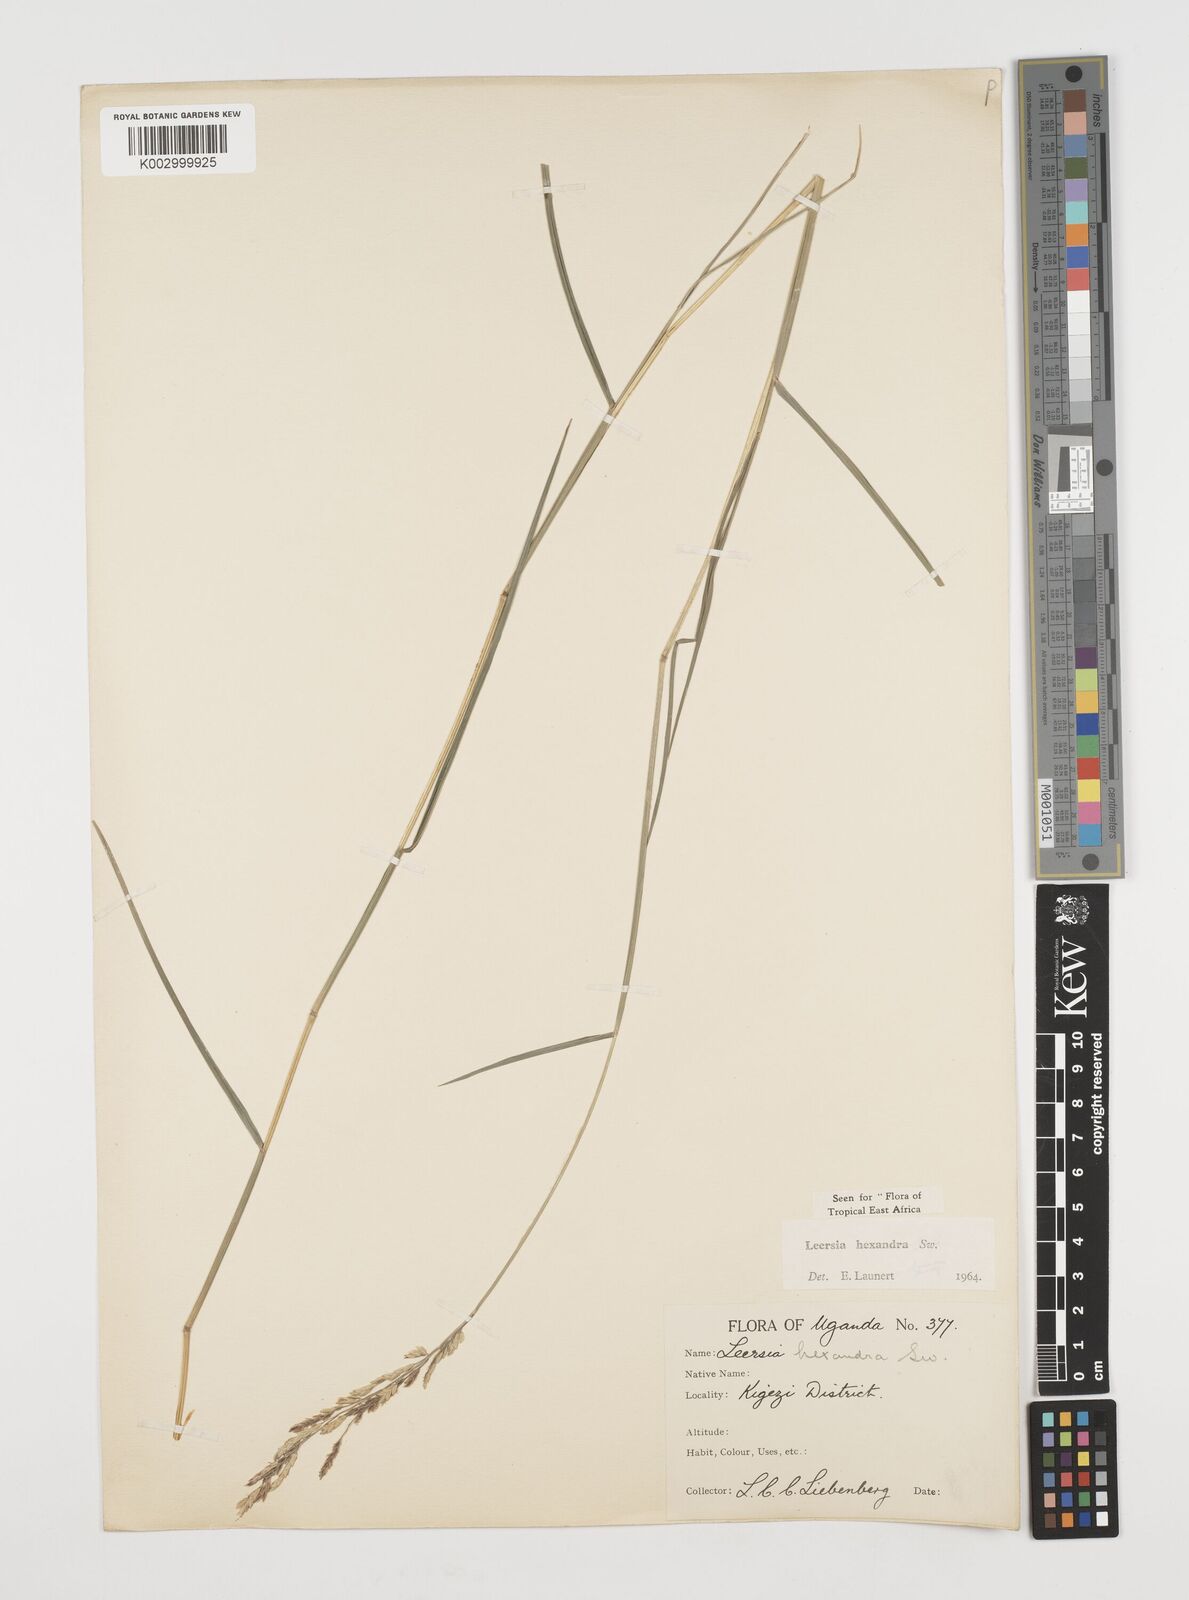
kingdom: Plantae
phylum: Tracheophyta
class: Liliopsida
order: Poales
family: Poaceae
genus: Leersia
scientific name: Leersia hexandra
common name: Southern cut grass
